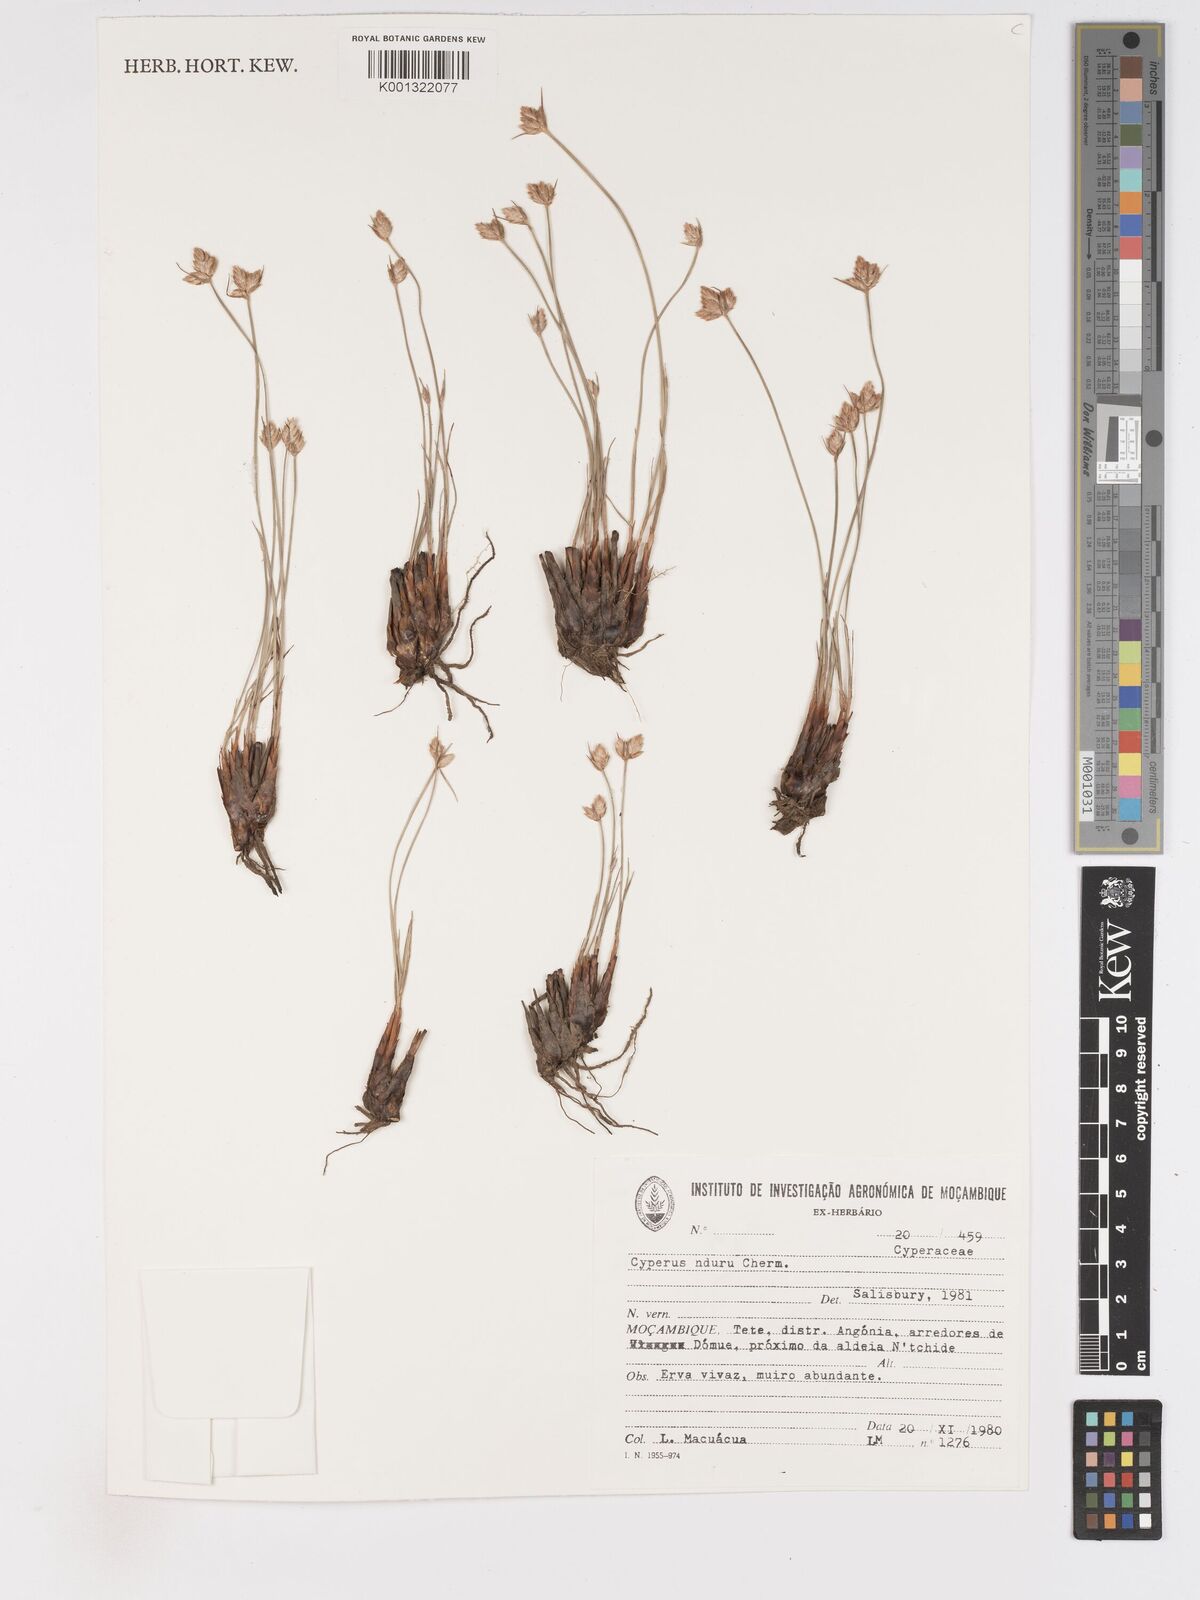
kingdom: Plantae
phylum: Tracheophyta
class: Liliopsida
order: Poales
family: Cyperaceae
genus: Cyperus
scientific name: Cyperus nduru
